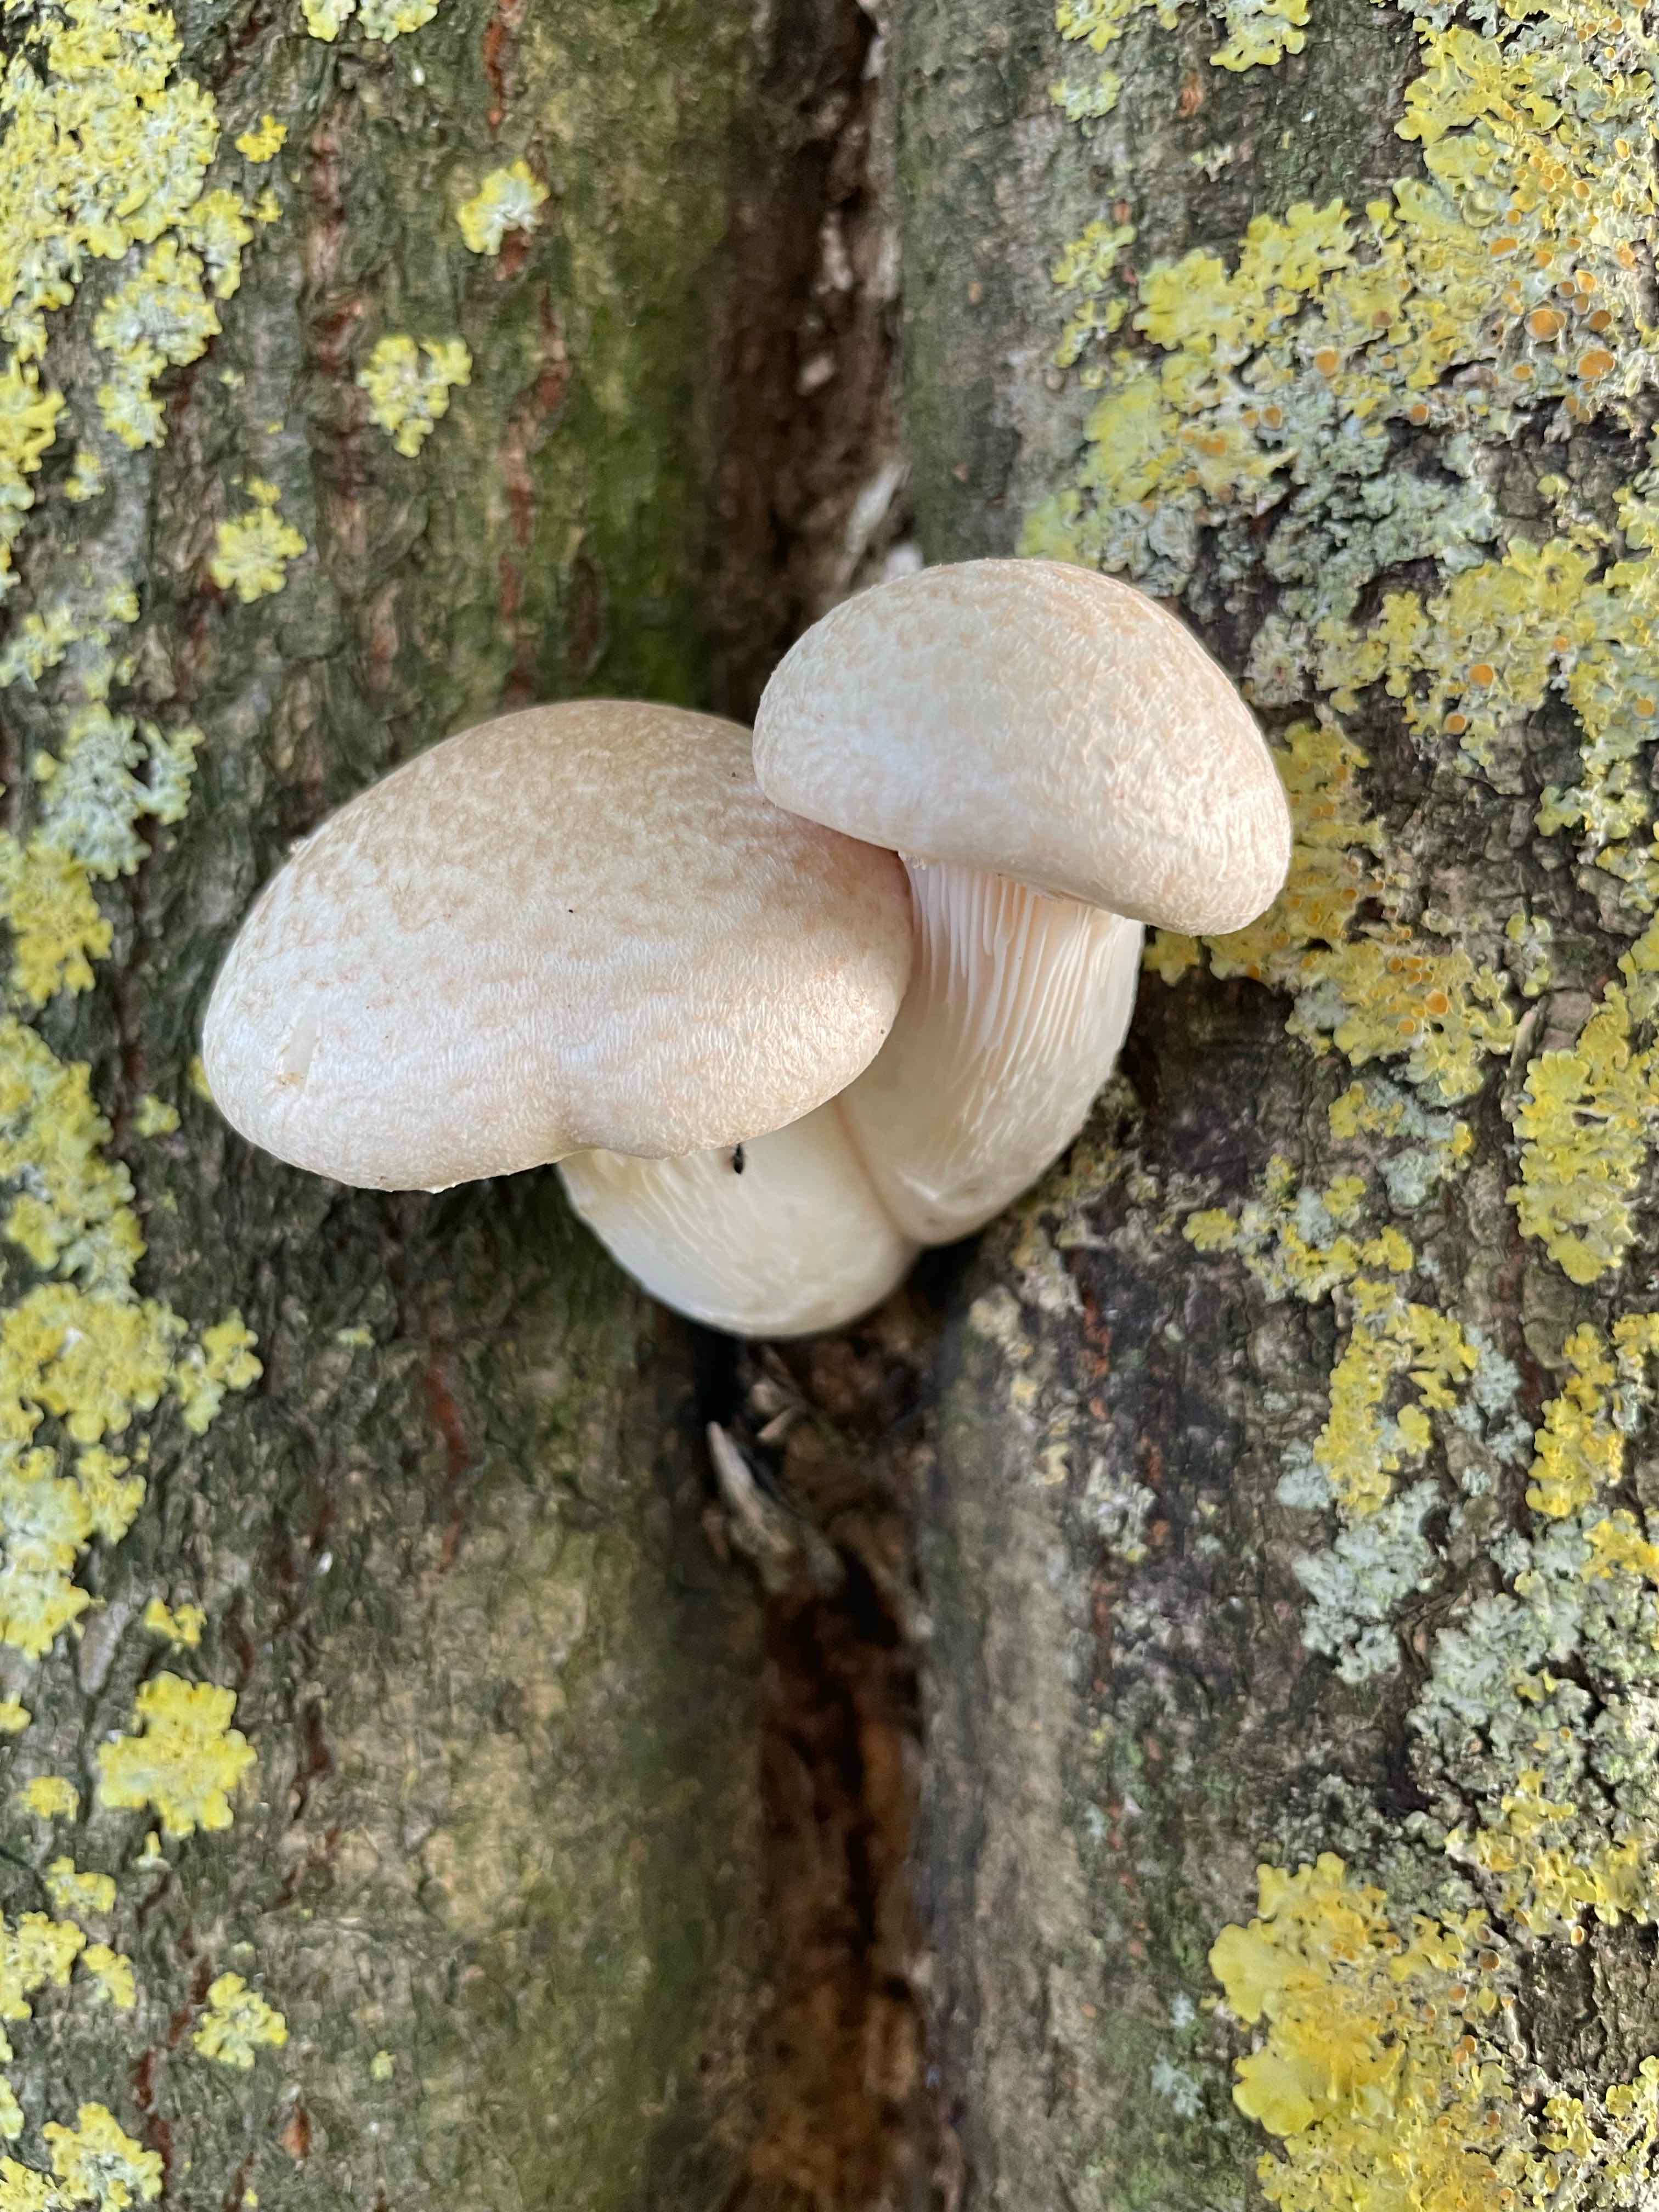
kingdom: Fungi
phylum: Basidiomycota
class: Agaricomycetes
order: Agaricales
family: Pleurotaceae
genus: Pleurotus
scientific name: Pleurotus dryinus
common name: korkagtig østershat
